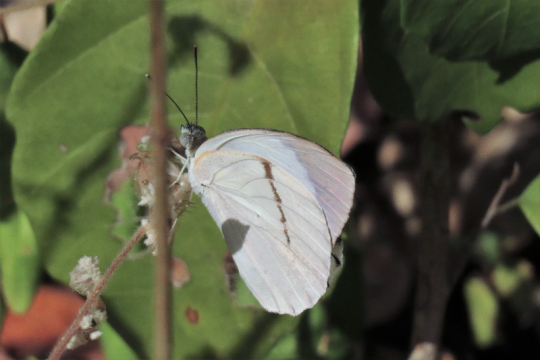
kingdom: Animalia
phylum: Arthropoda
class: Insecta
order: Lepidoptera
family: Pieridae
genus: Colotis
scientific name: Colotis ione
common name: Bushveld Purple Tip
